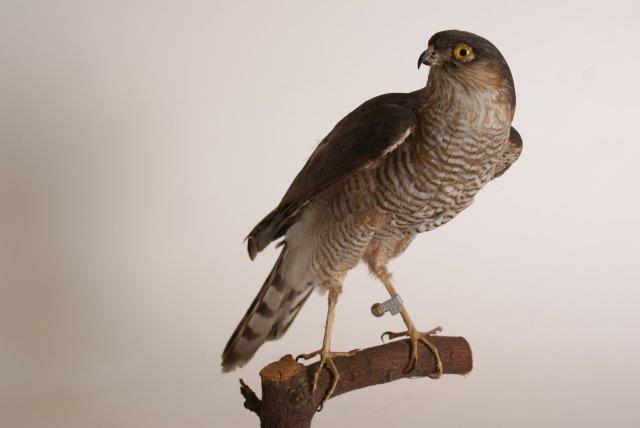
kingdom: Animalia
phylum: Chordata
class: Aves
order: Accipitriformes
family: Accipitridae
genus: Accipiter
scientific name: Accipiter nisus
